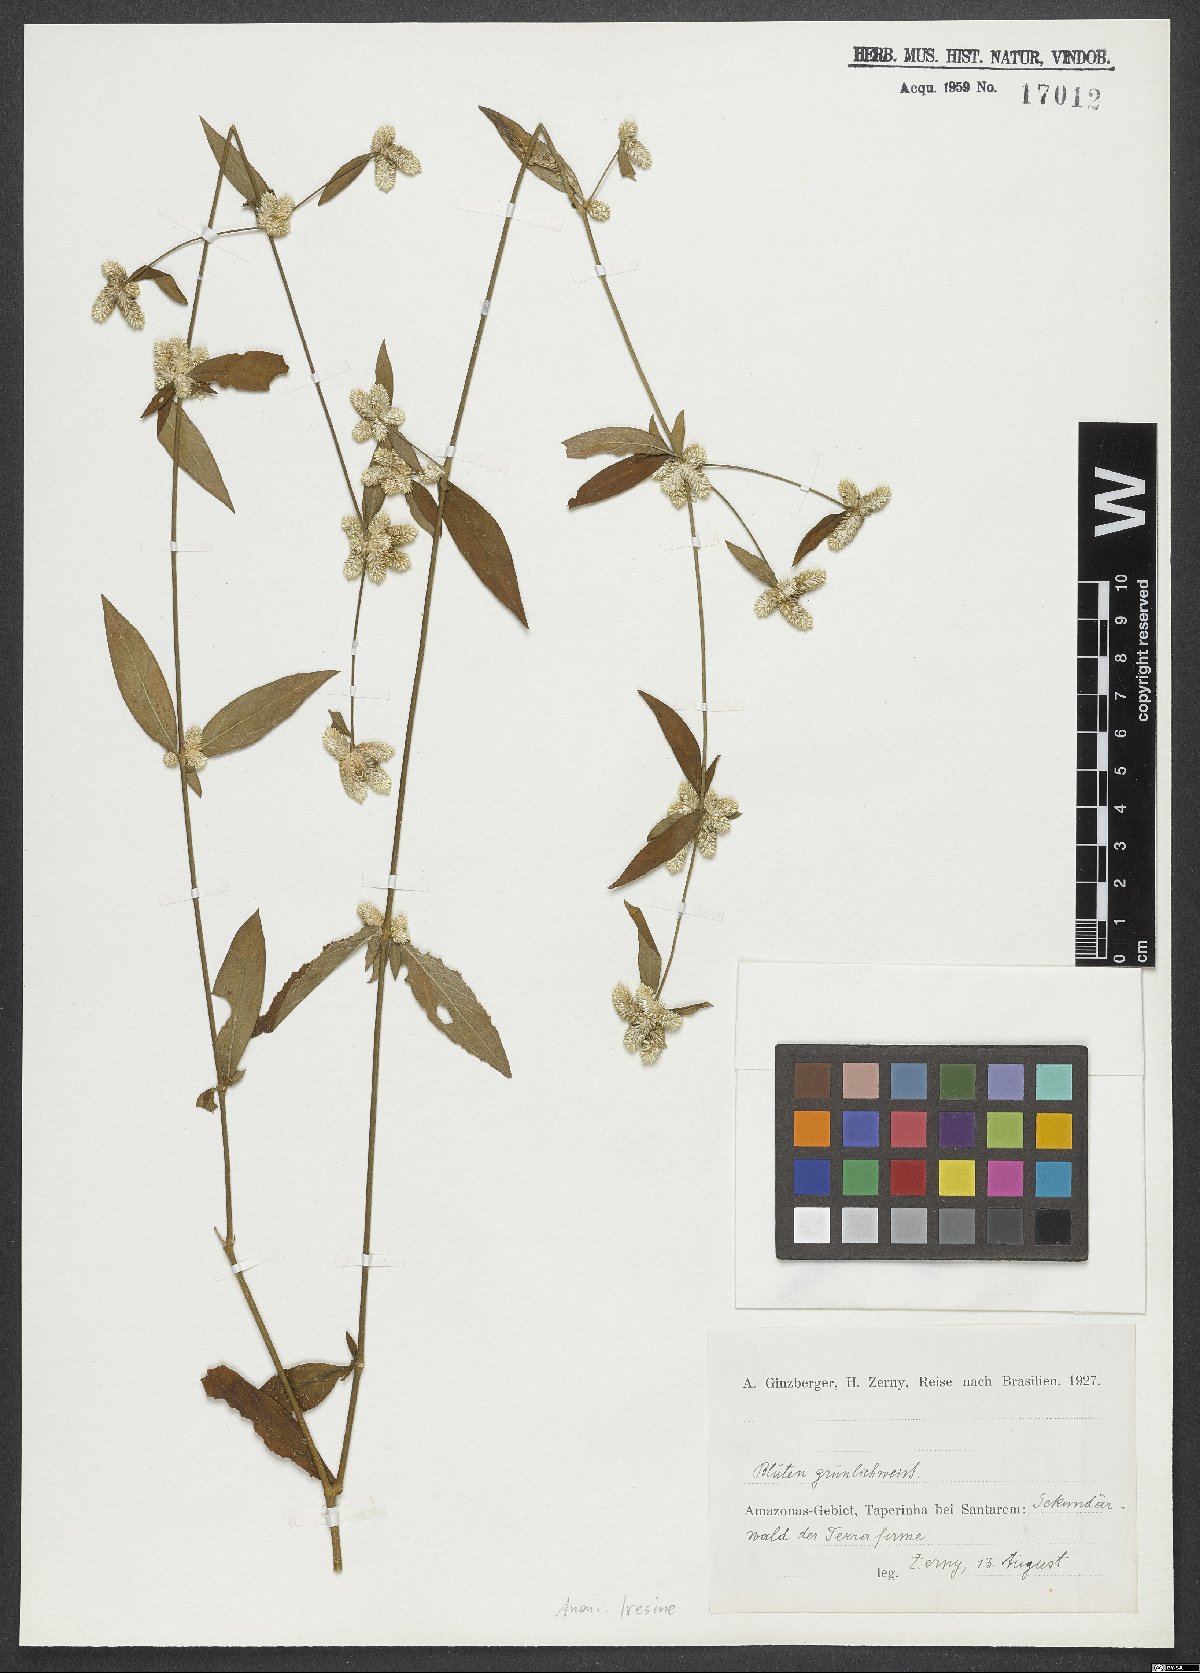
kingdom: Plantae
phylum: Tracheophyta
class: Magnoliopsida
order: Caryophyllales
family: Amaranthaceae
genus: Iresine
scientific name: Iresine
